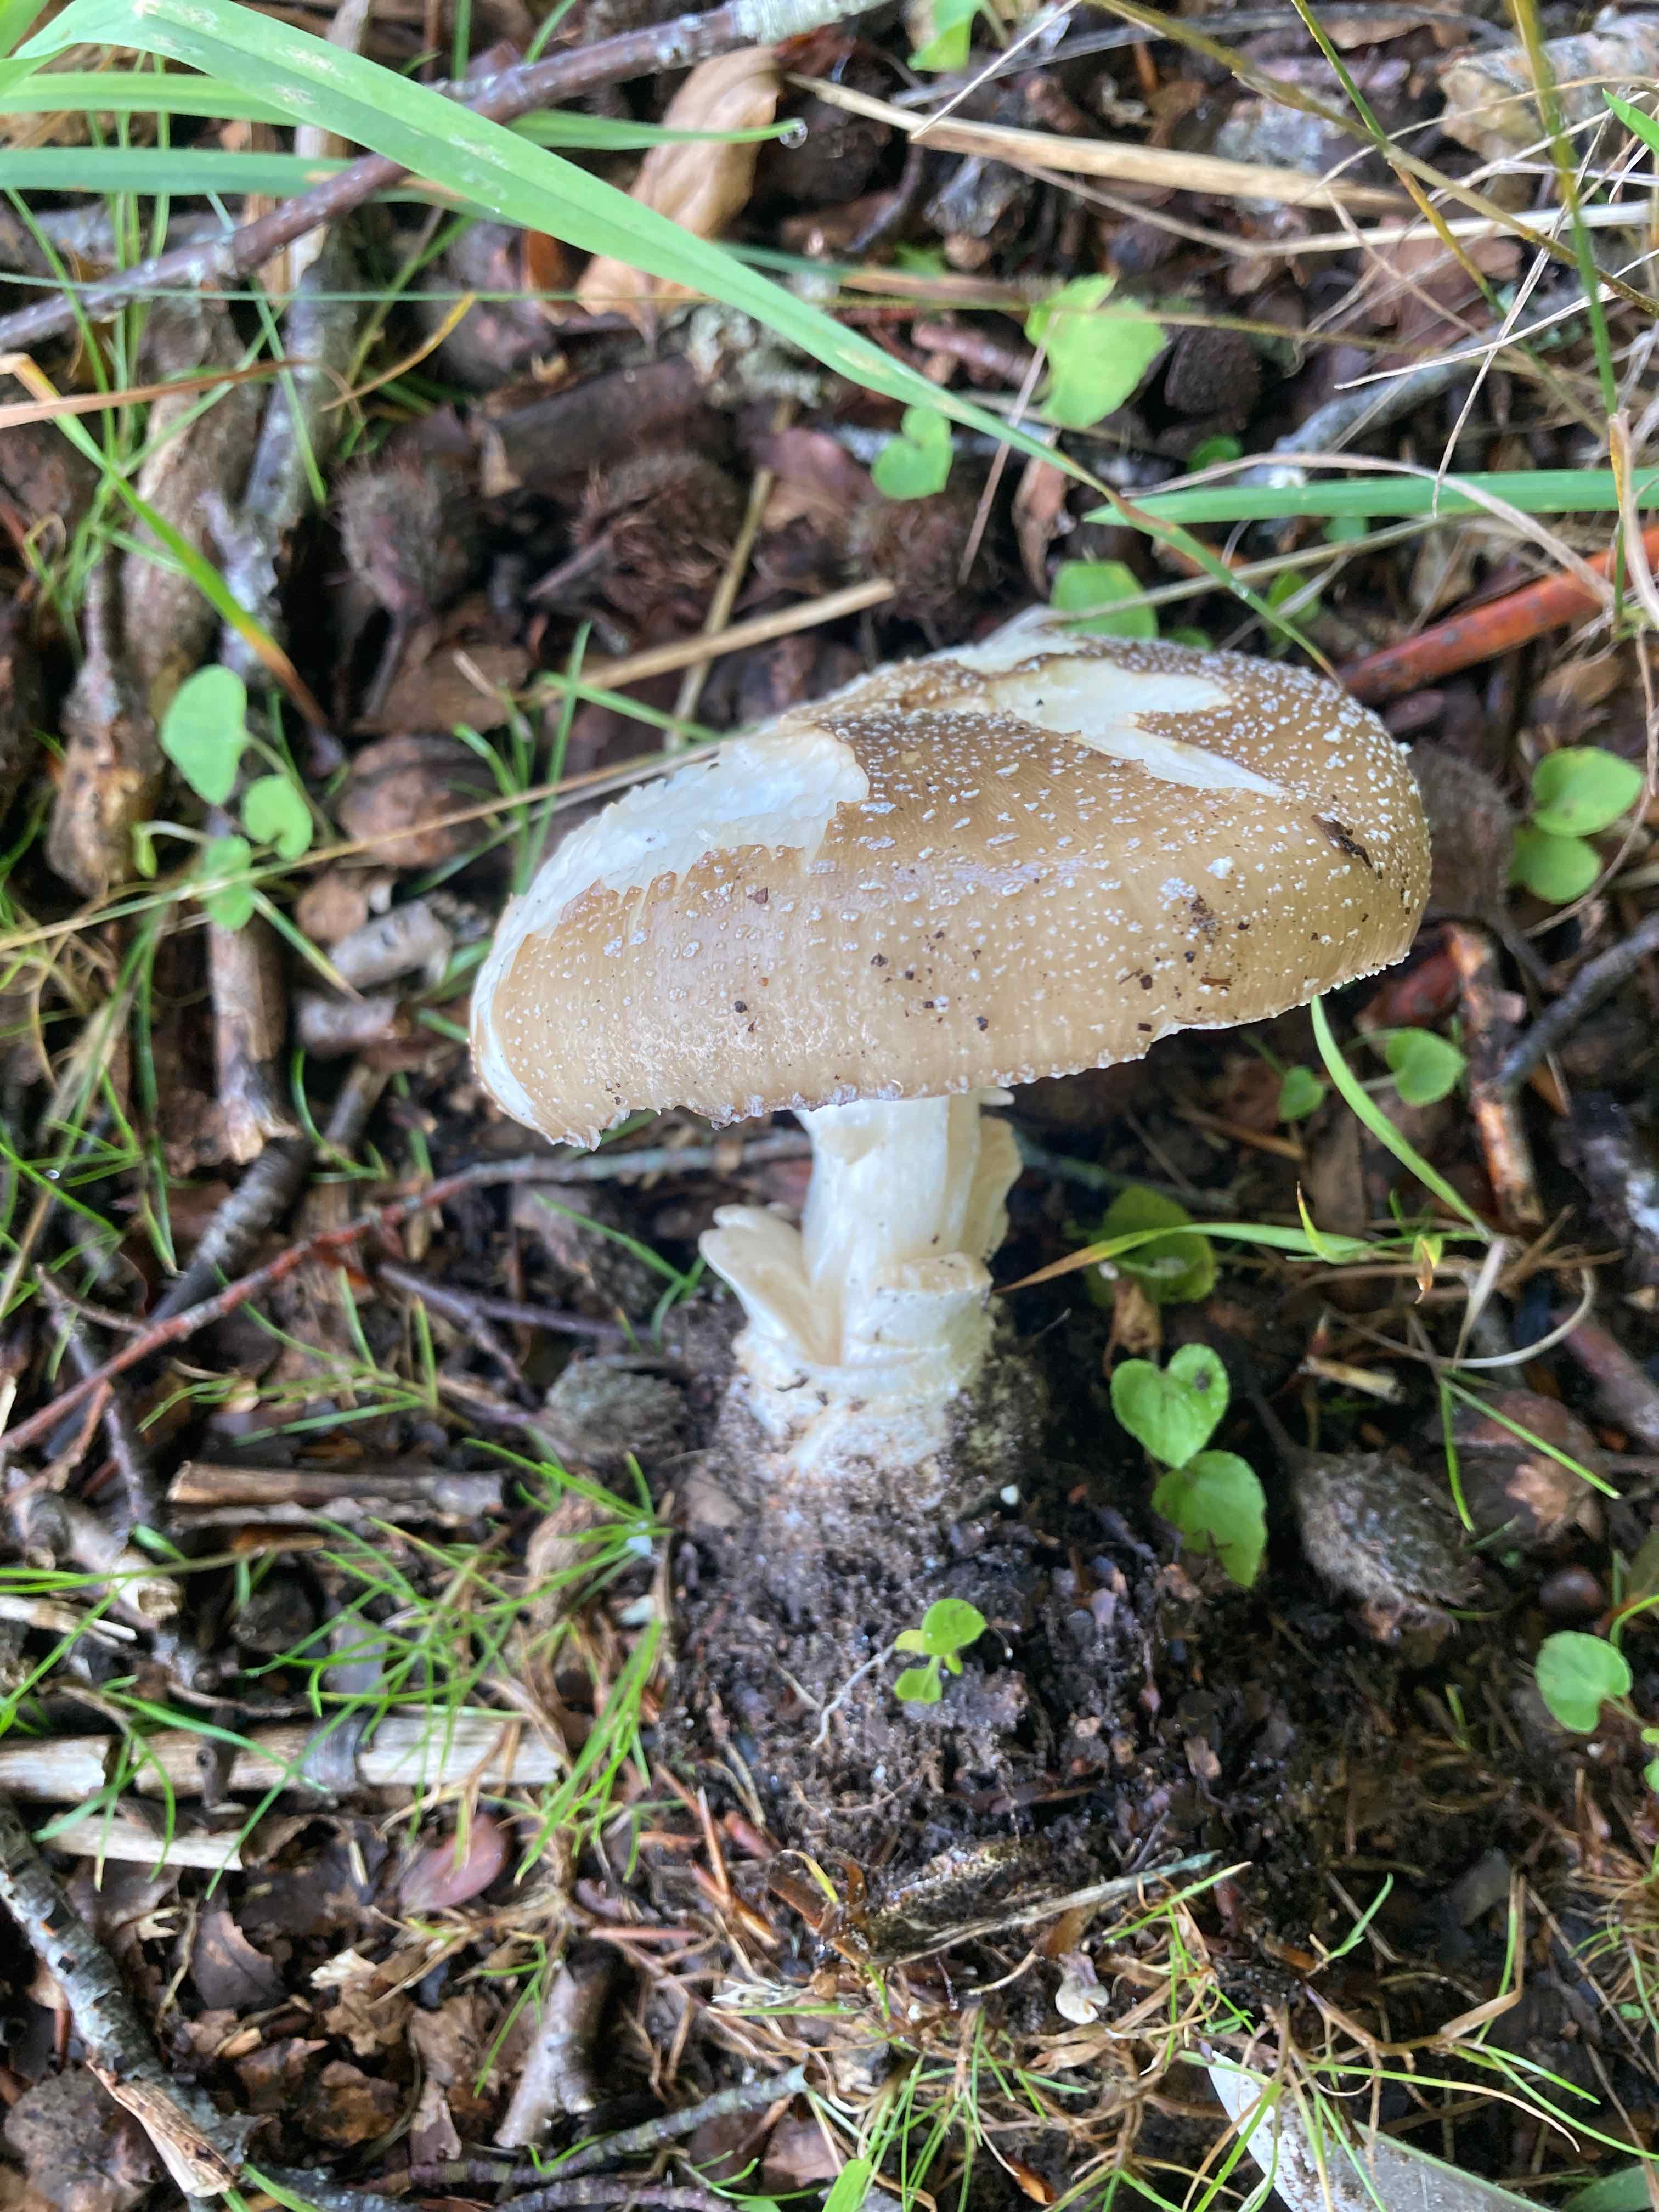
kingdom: Fungi
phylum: Basidiomycota
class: Agaricomycetes
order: Agaricales
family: Amanitaceae
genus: Amanita
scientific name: Amanita pantherina
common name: panter-fluesvamp
